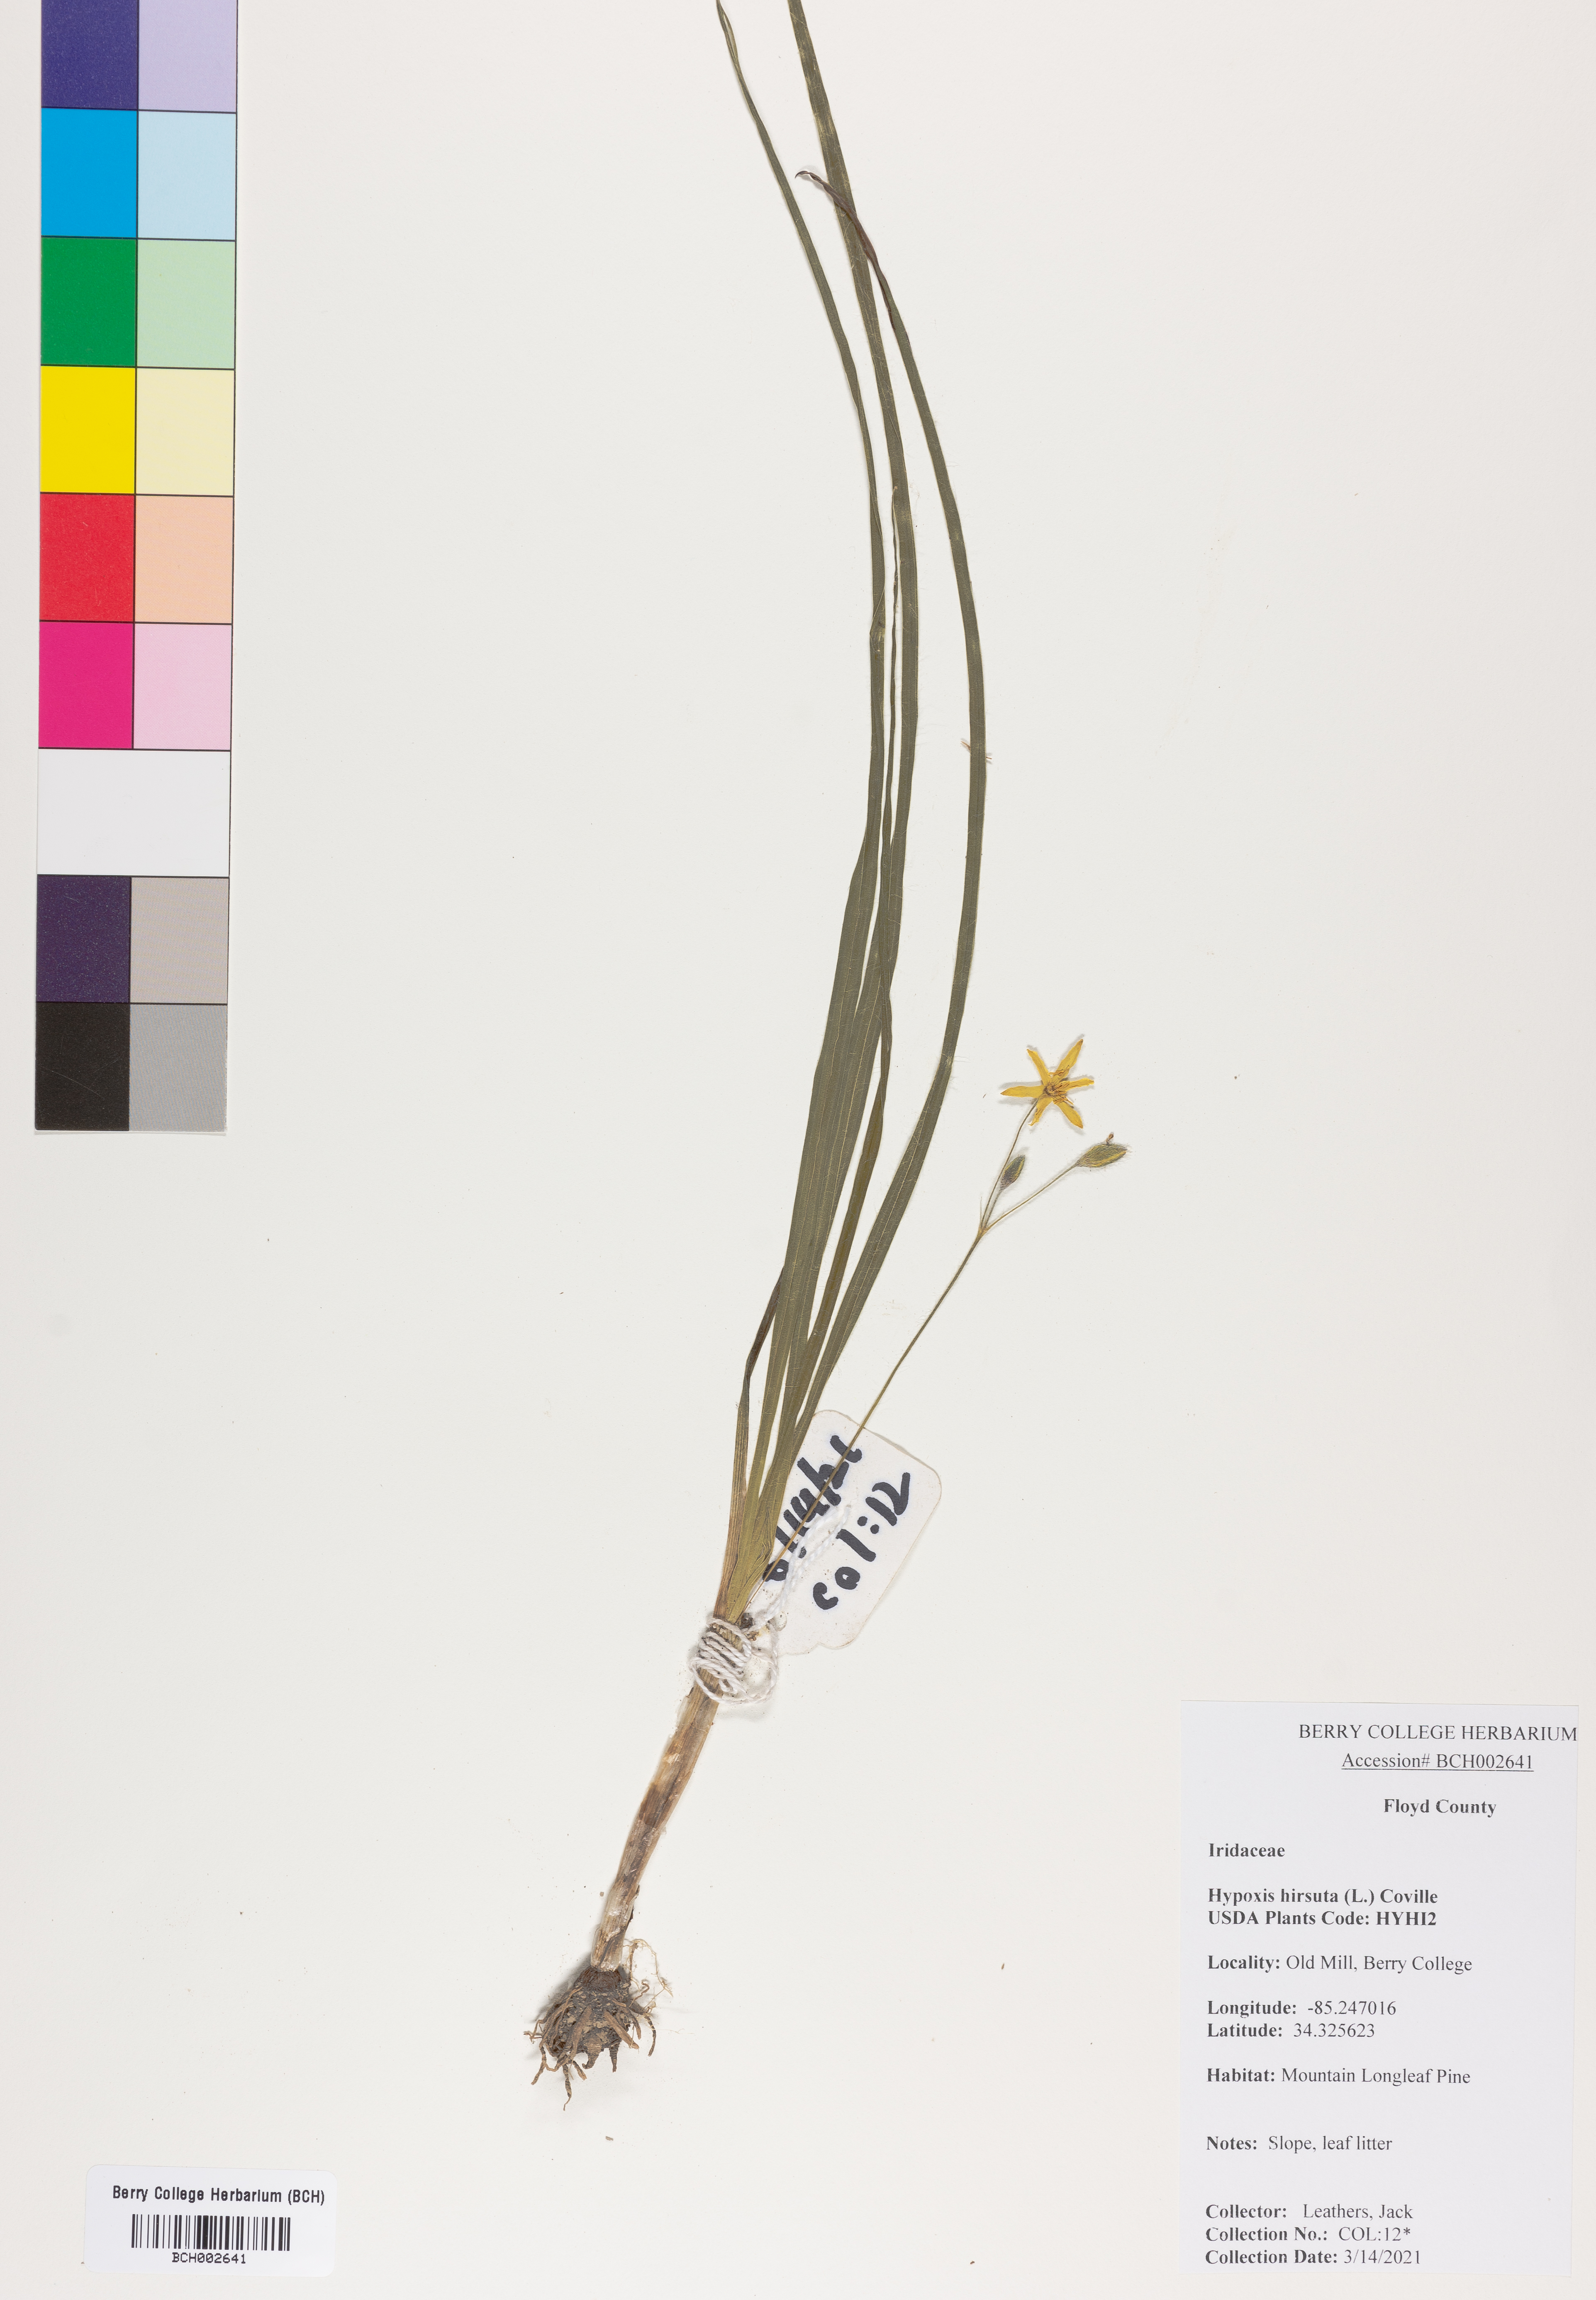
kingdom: Plantae
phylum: Tracheophyta
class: Liliopsida
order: Asparagales
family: Hypoxidaceae
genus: Hypoxis
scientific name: Hypoxis hirsuta
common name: Common goldstar
